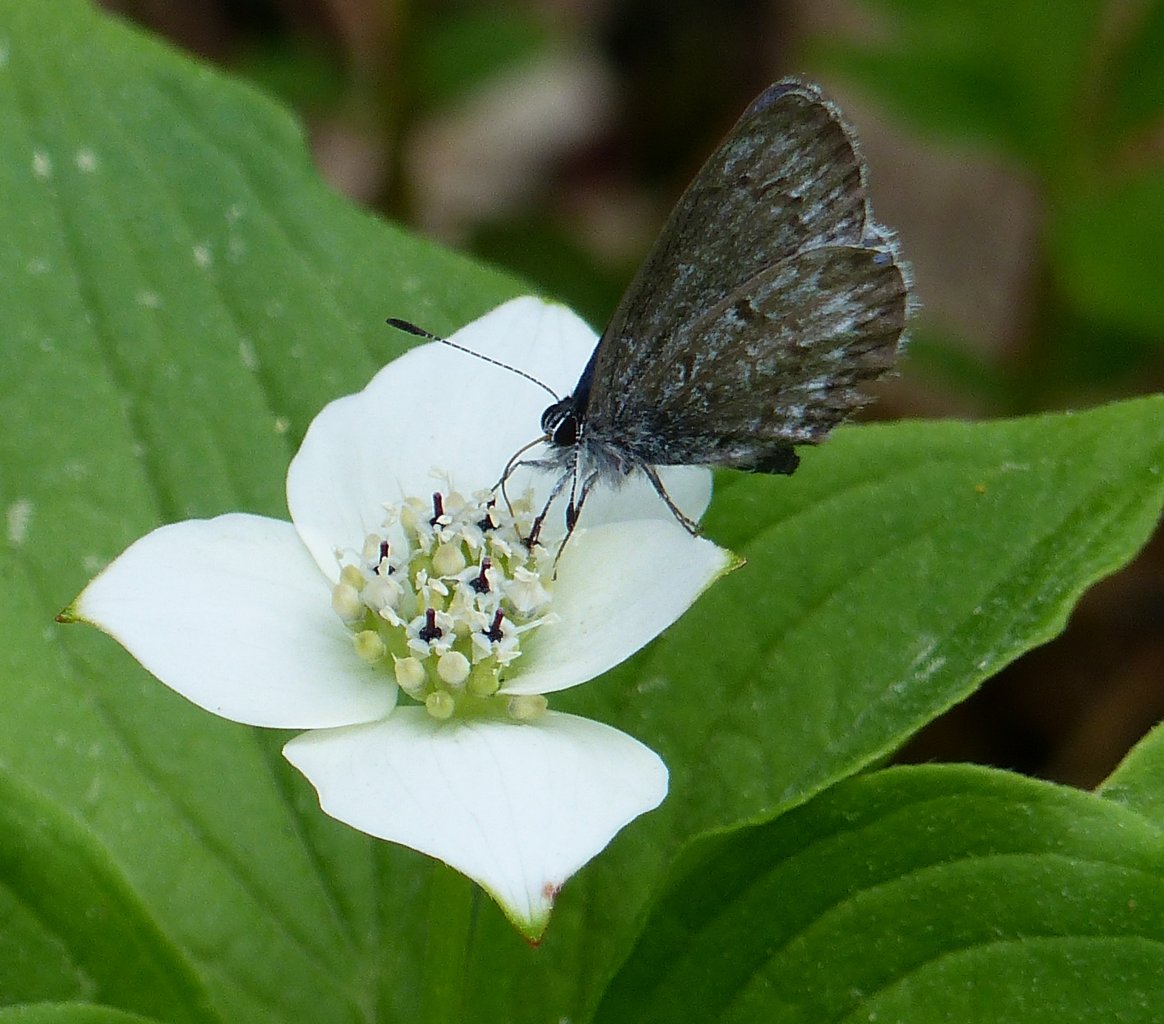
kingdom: Animalia
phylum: Arthropoda
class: Insecta
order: Lepidoptera
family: Lycaenidae
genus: Celastrina
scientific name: Celastrina
